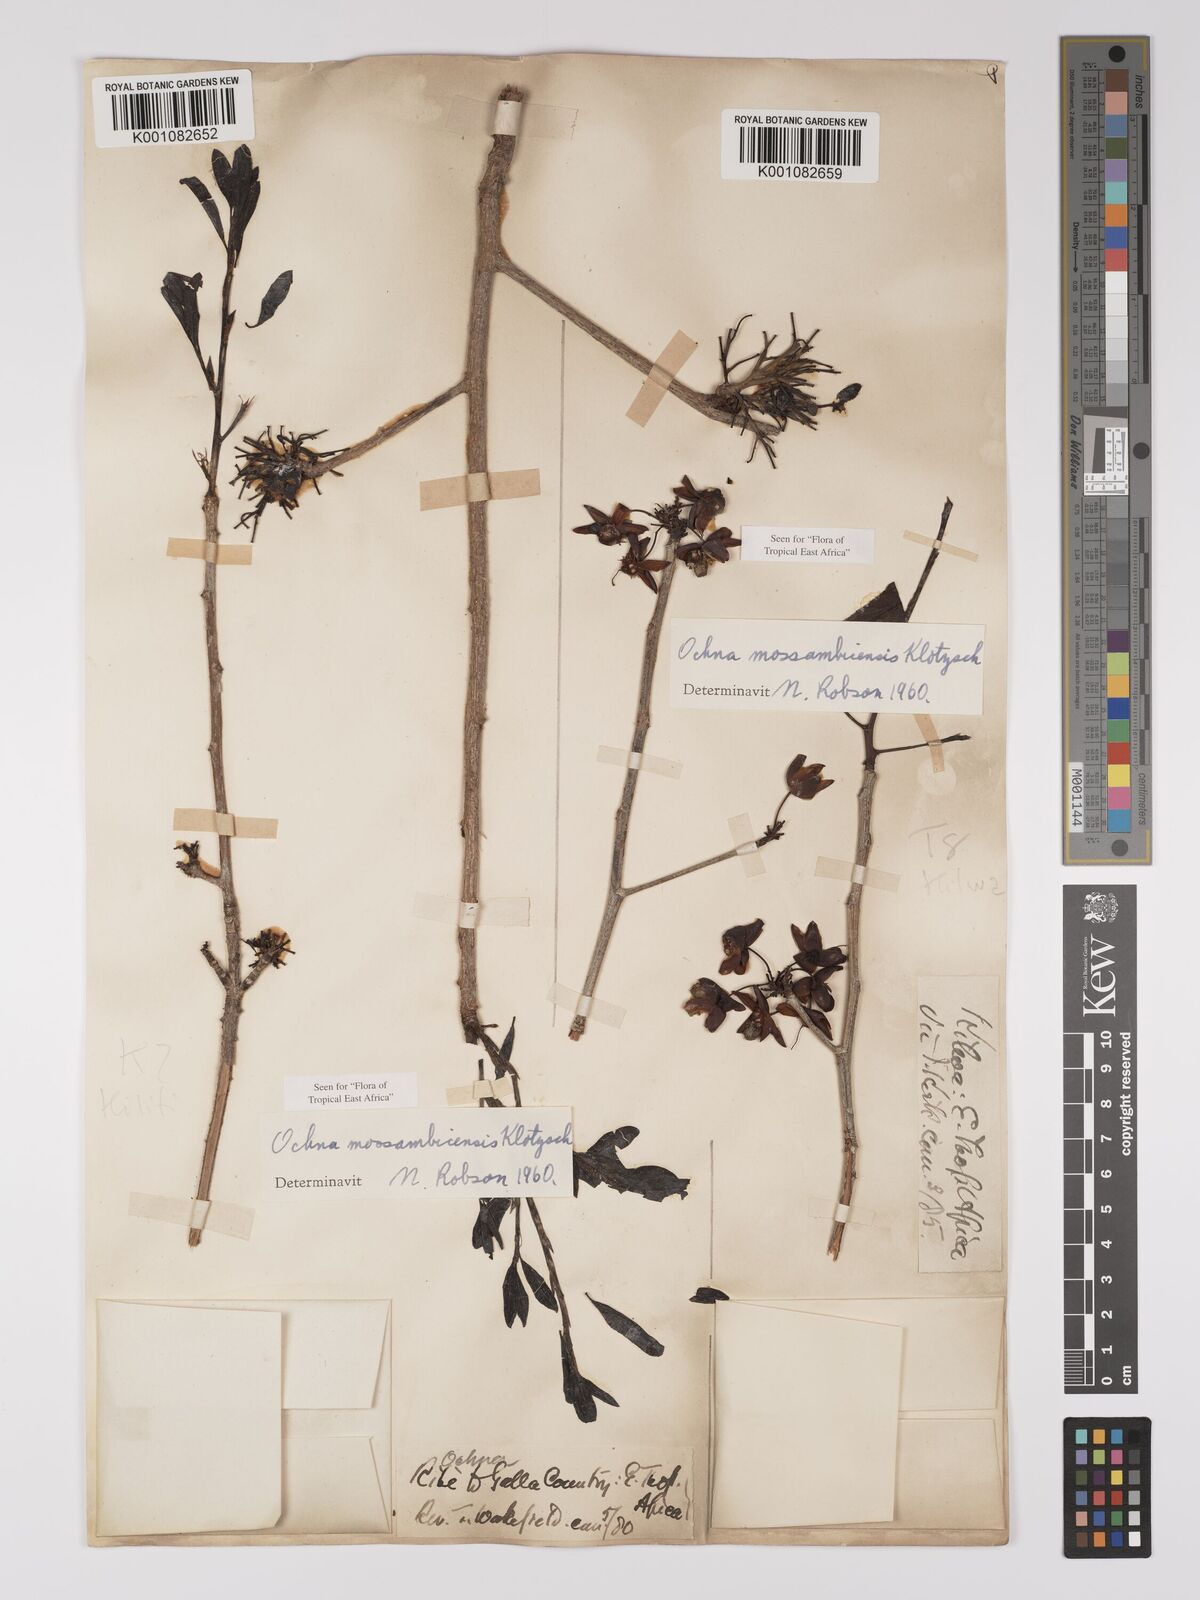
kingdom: Plantae
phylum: Tracheophyta
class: Magnoliopsida
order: Malpighiales
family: Ochnaceae
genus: Ochna
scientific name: Ochna atropurpurea
